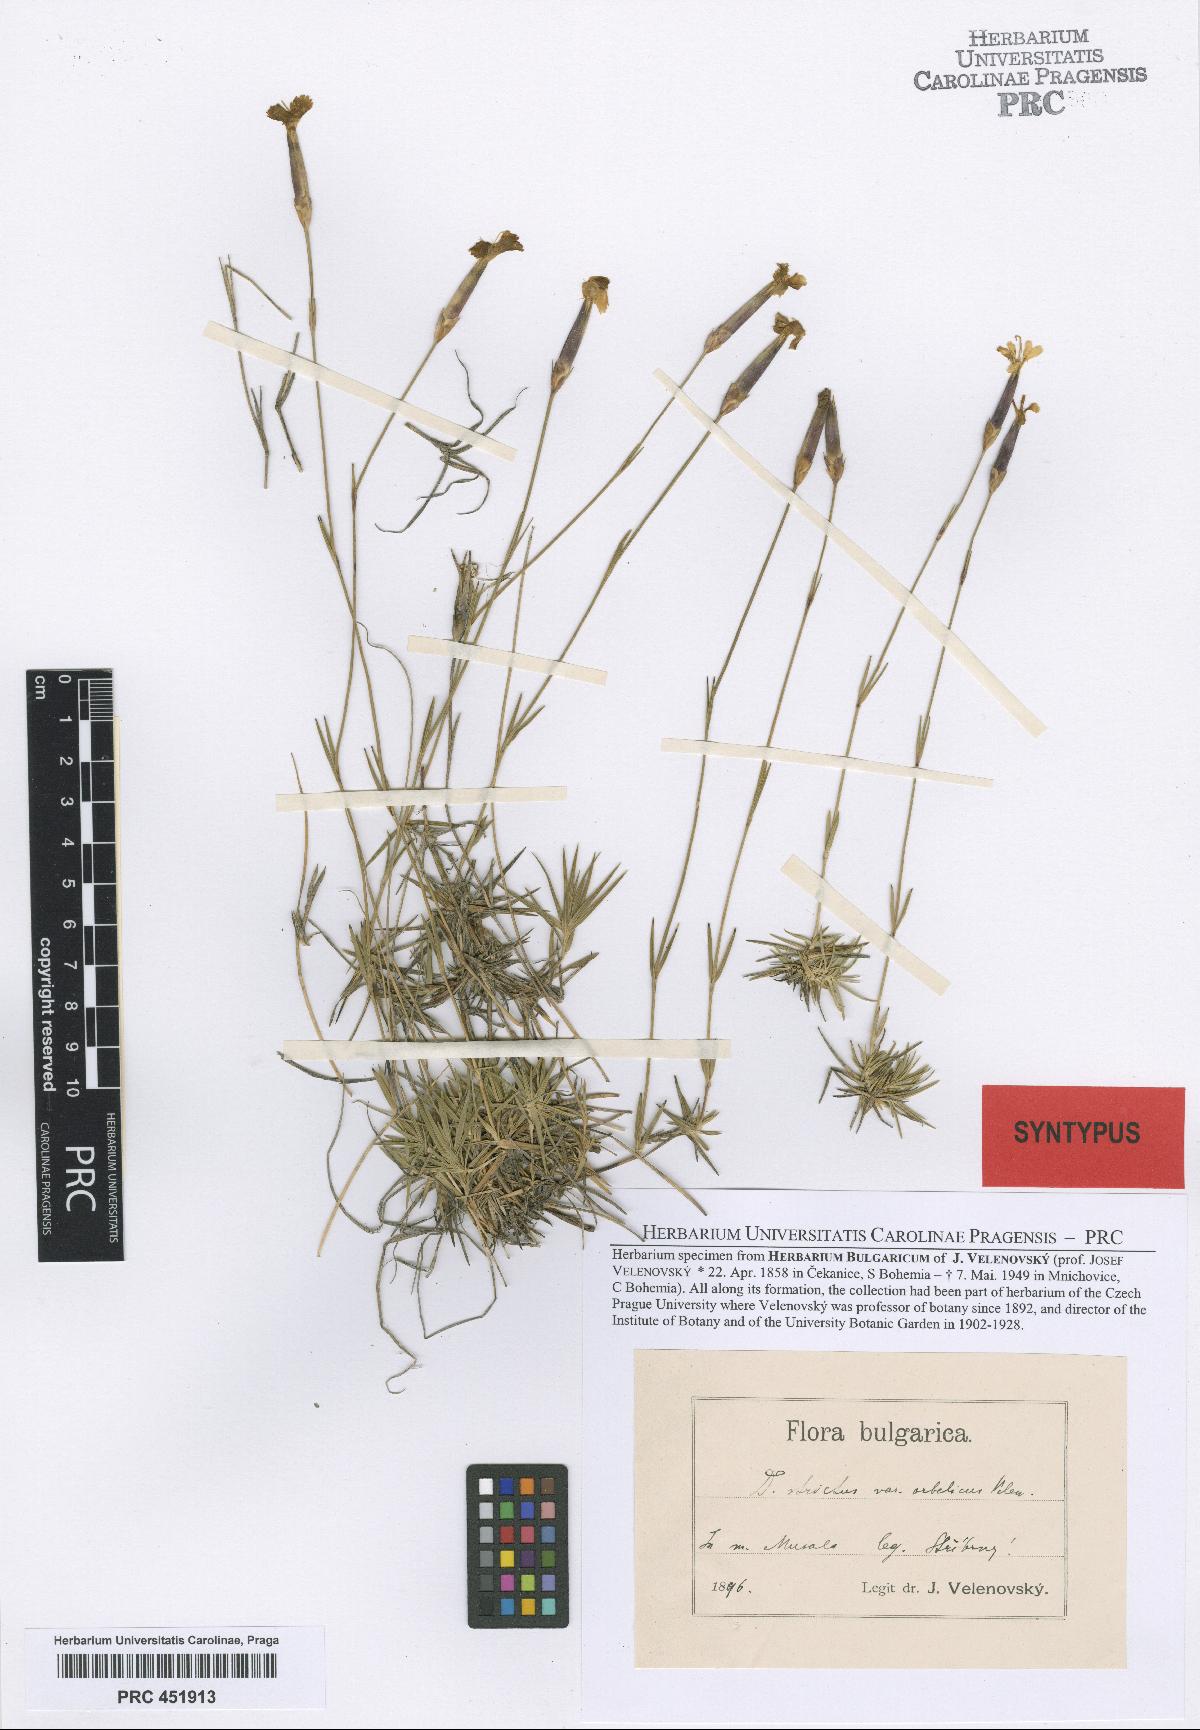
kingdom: Plantae
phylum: Tracheophyta
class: Magnoliopsida
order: Caryophyllales
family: Caryophyllaceae
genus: Dianthus
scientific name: Dianthus petraeus
